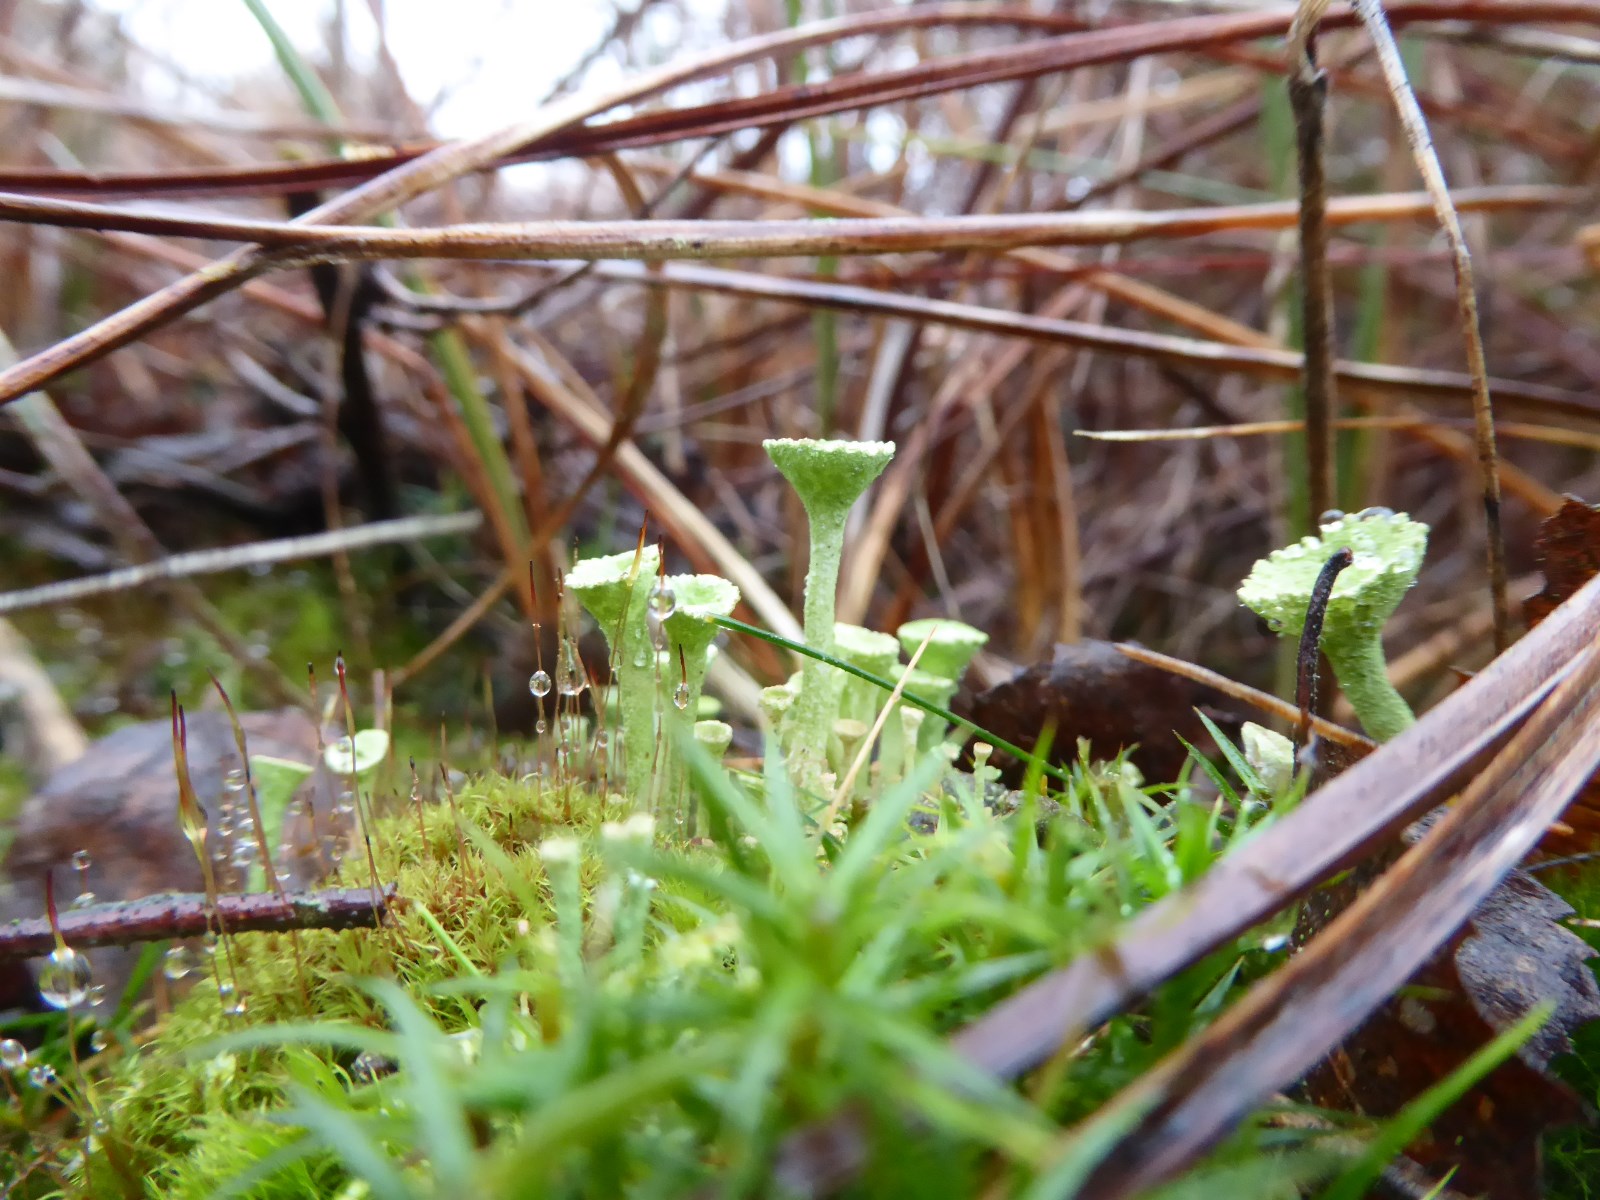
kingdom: Fungi
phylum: Ascomycota
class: Lecanoromycetes
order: Lecanorales
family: Cladoniaceae
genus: Cladonia
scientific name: Cladonia fimbriata
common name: bleggrøn bægerlav
